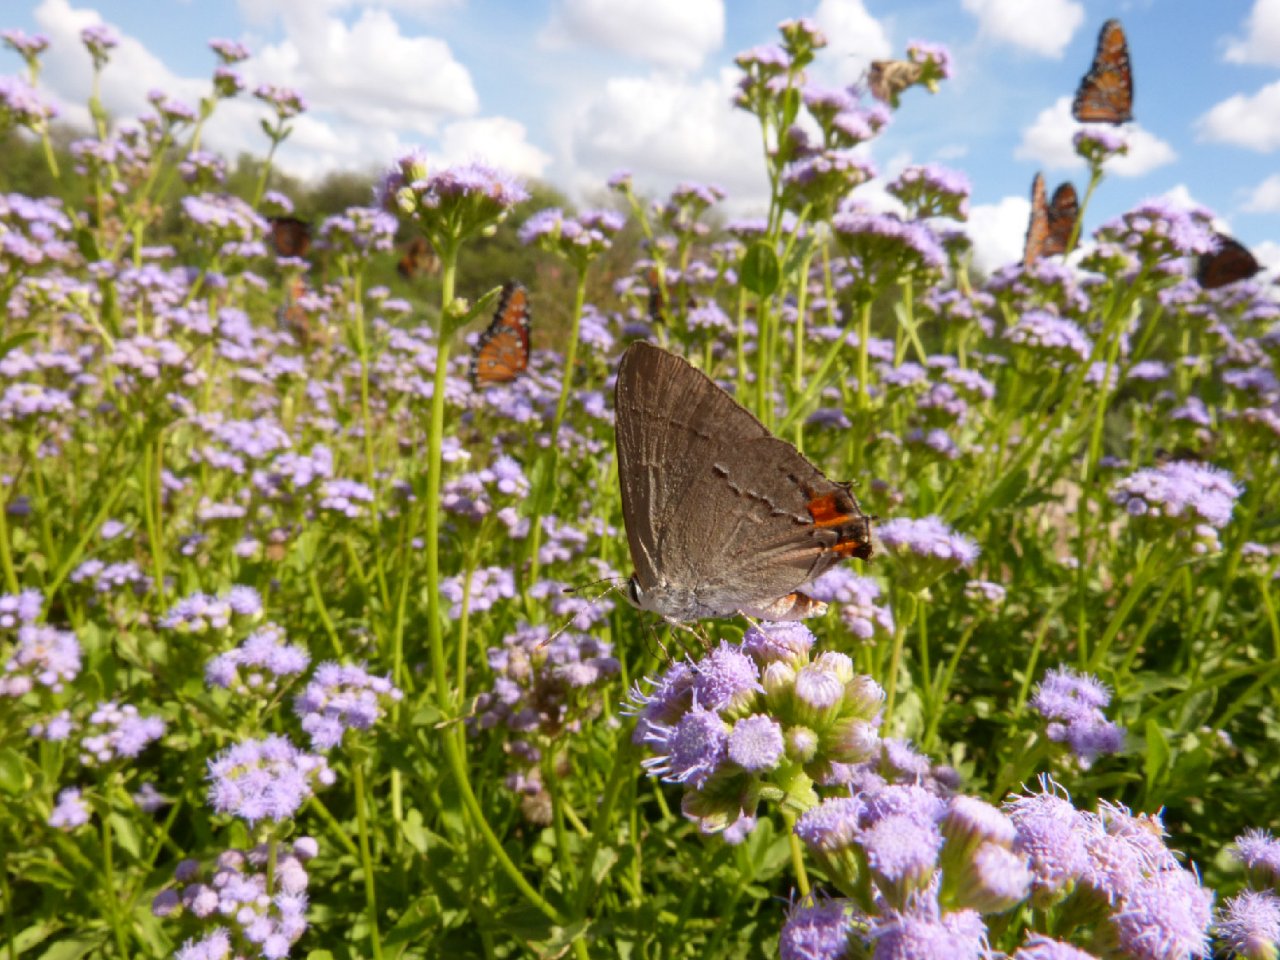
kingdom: Animalia
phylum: Arthropoda
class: Insecta
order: Lepidoptera
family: Lycaenidae
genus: Strymon
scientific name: Strymon melinus
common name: Gray Hairstreak
